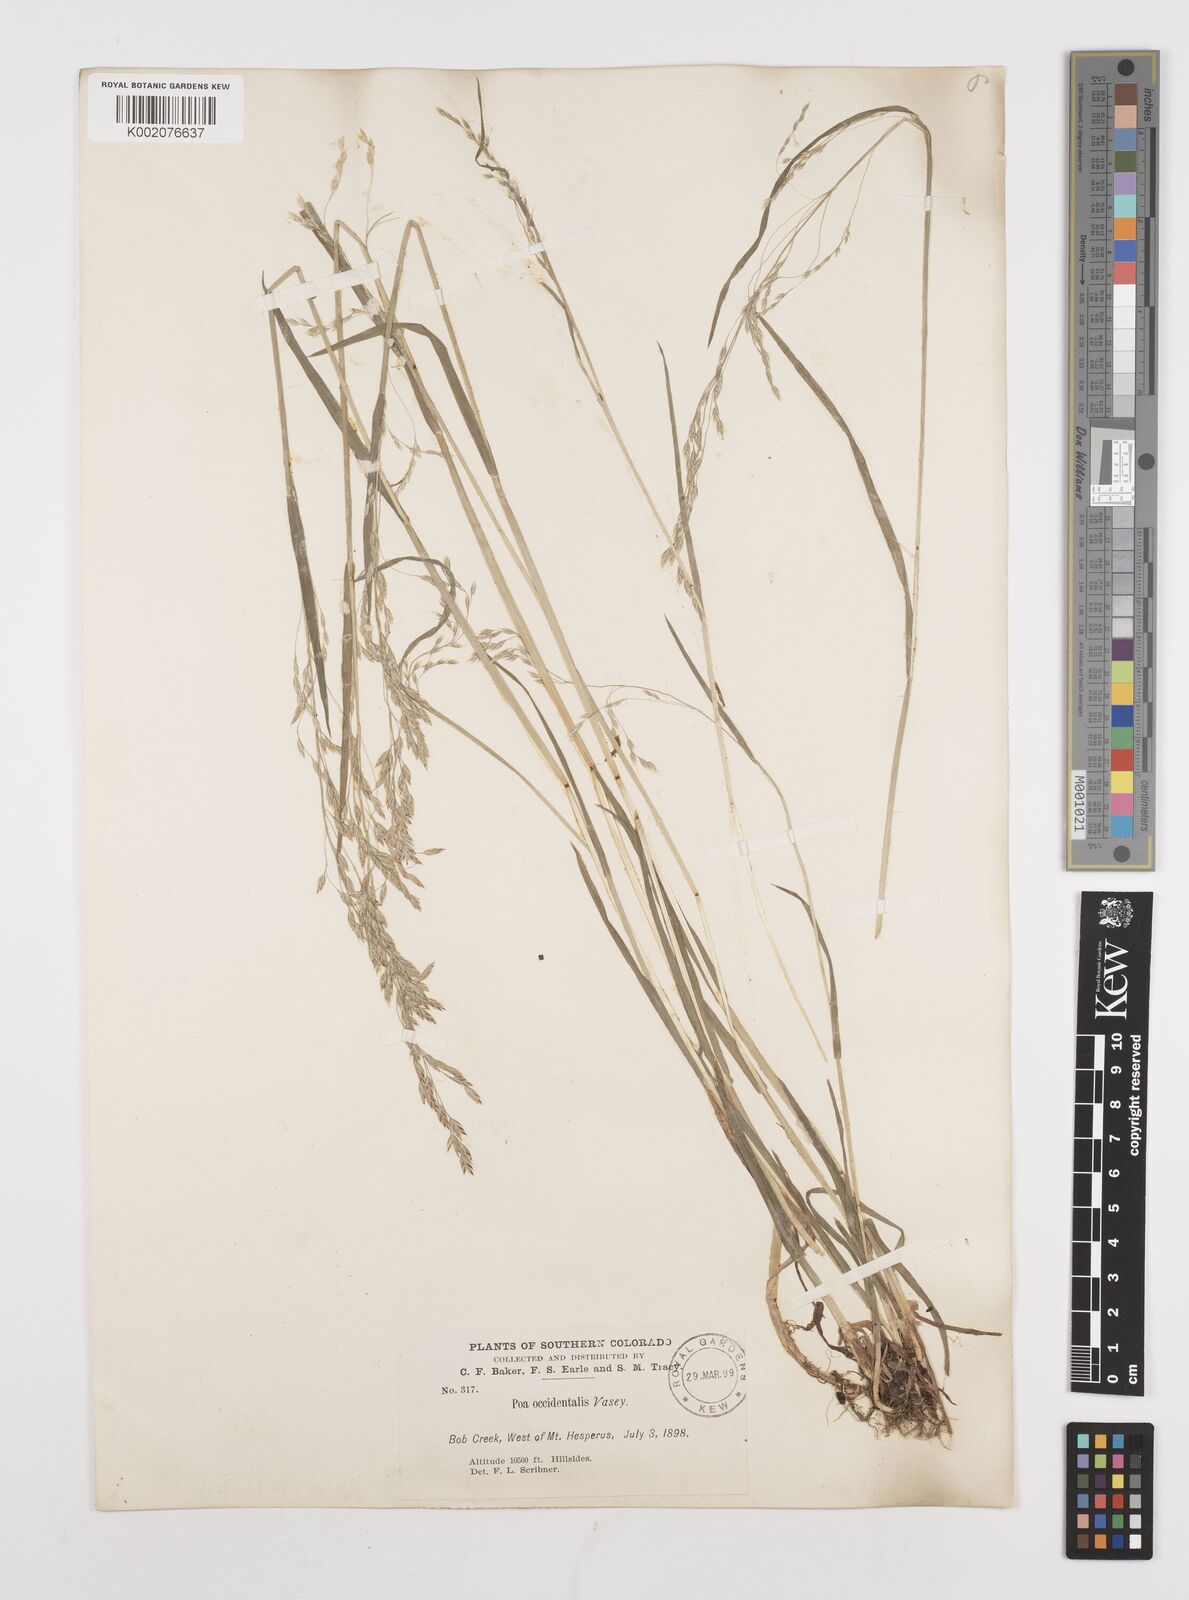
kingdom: Plantae
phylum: Tracheophyta
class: Liliopsida
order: Poales
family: Poaceae
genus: Poa
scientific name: Poa occidentalis
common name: New mexican bluegrass
